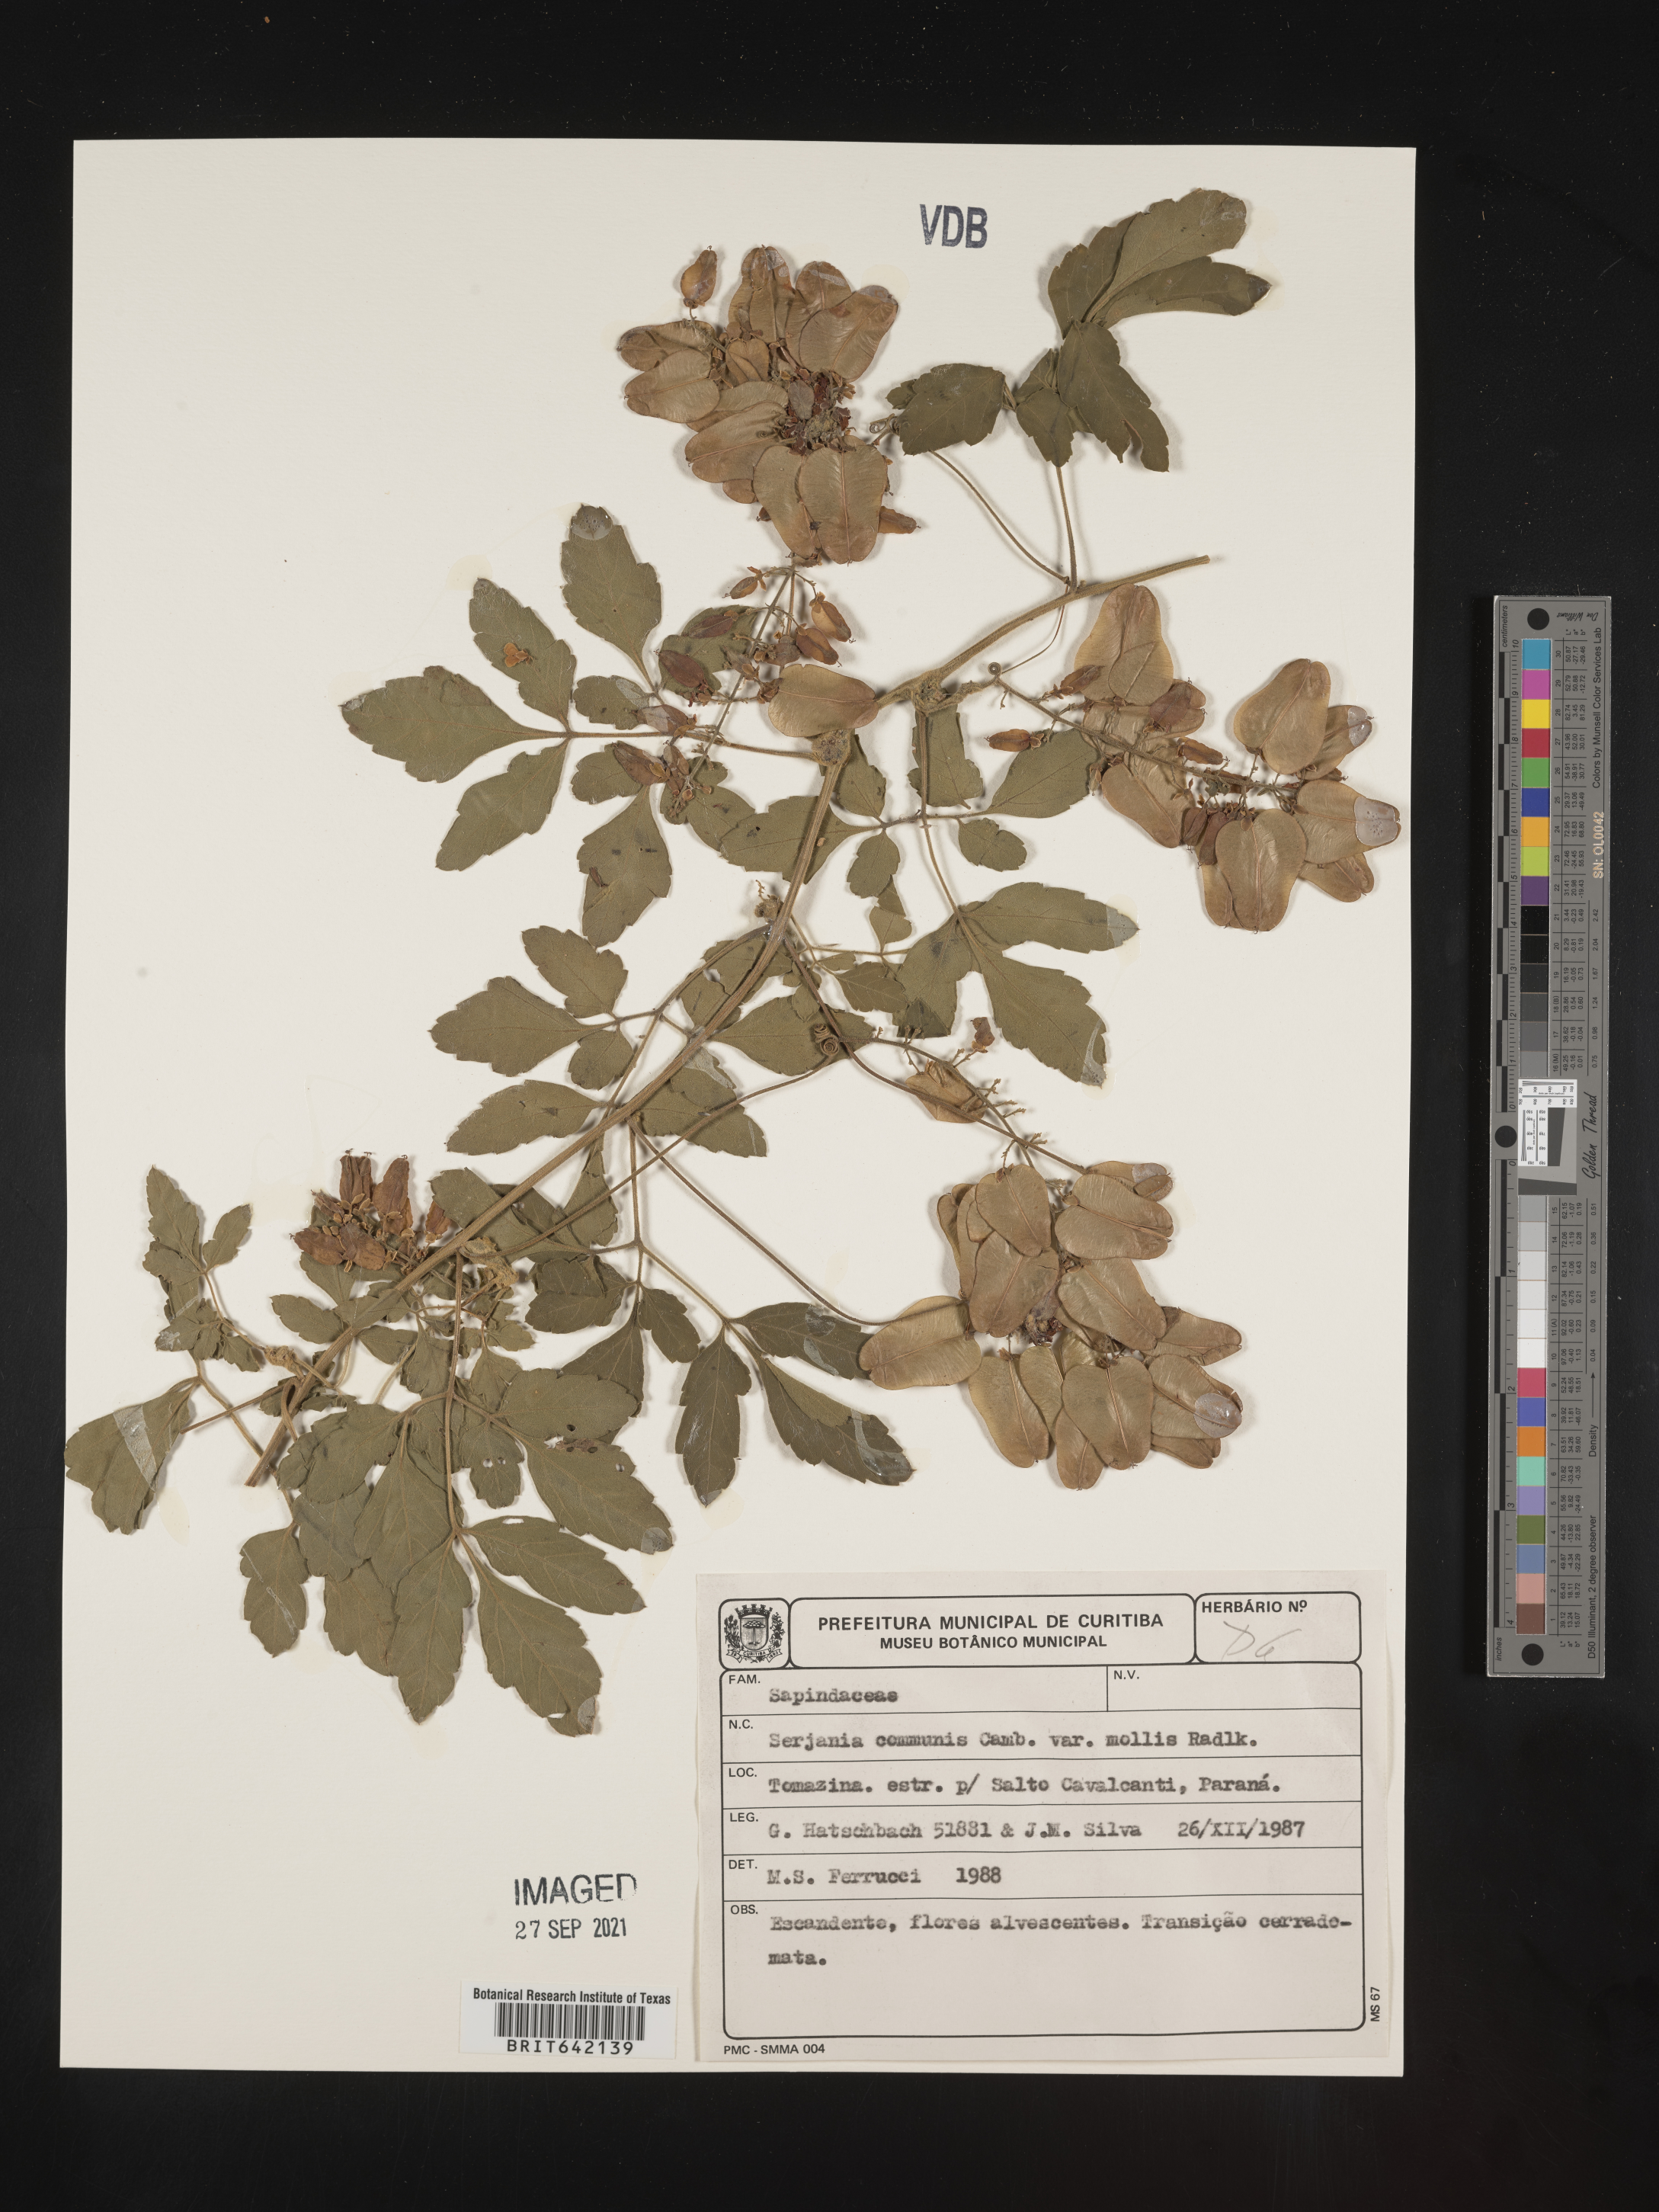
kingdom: Plantae
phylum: Tracheophyta
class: Magnoliopsida
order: Sapindales
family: Sapindaceae
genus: Serjania
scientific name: Serjania
